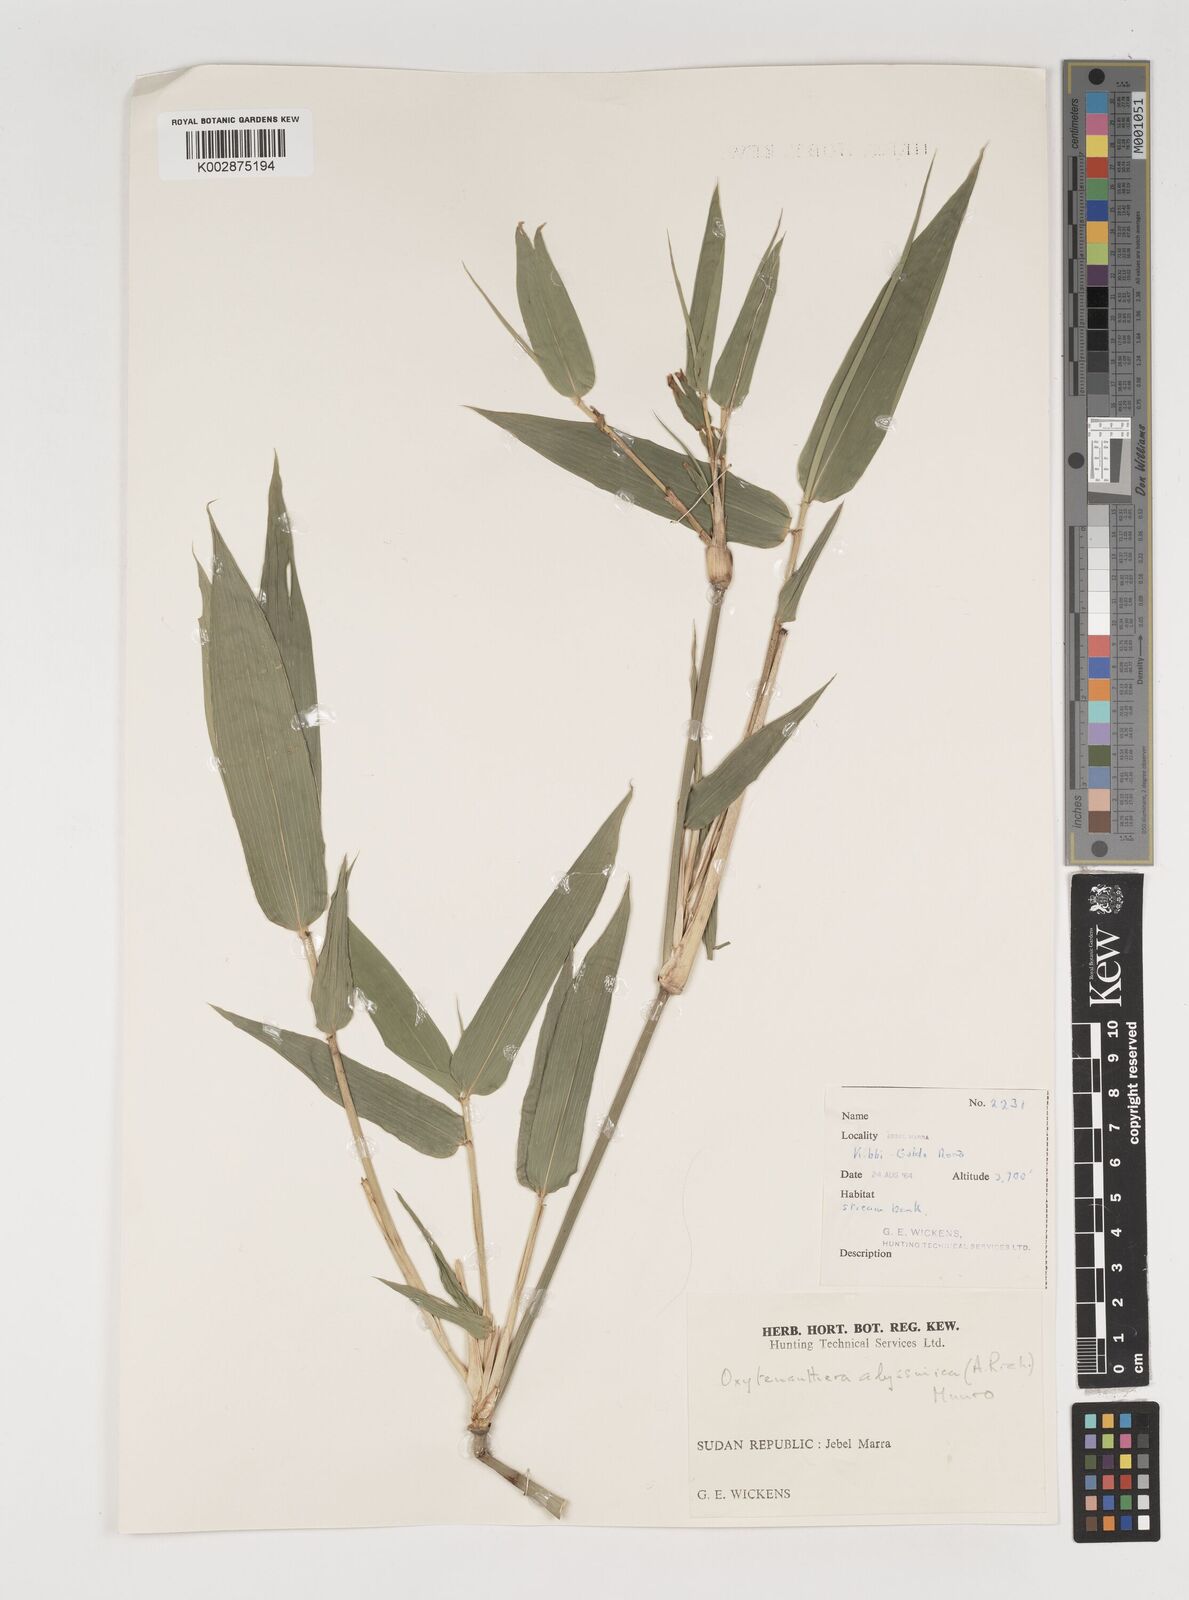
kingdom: Plantae
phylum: Tracheophyta
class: Liliopsida
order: Poales
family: Poaceae
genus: Oxytenanthera
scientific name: Oxytenanthera abyssinica
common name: Wine bamboo
